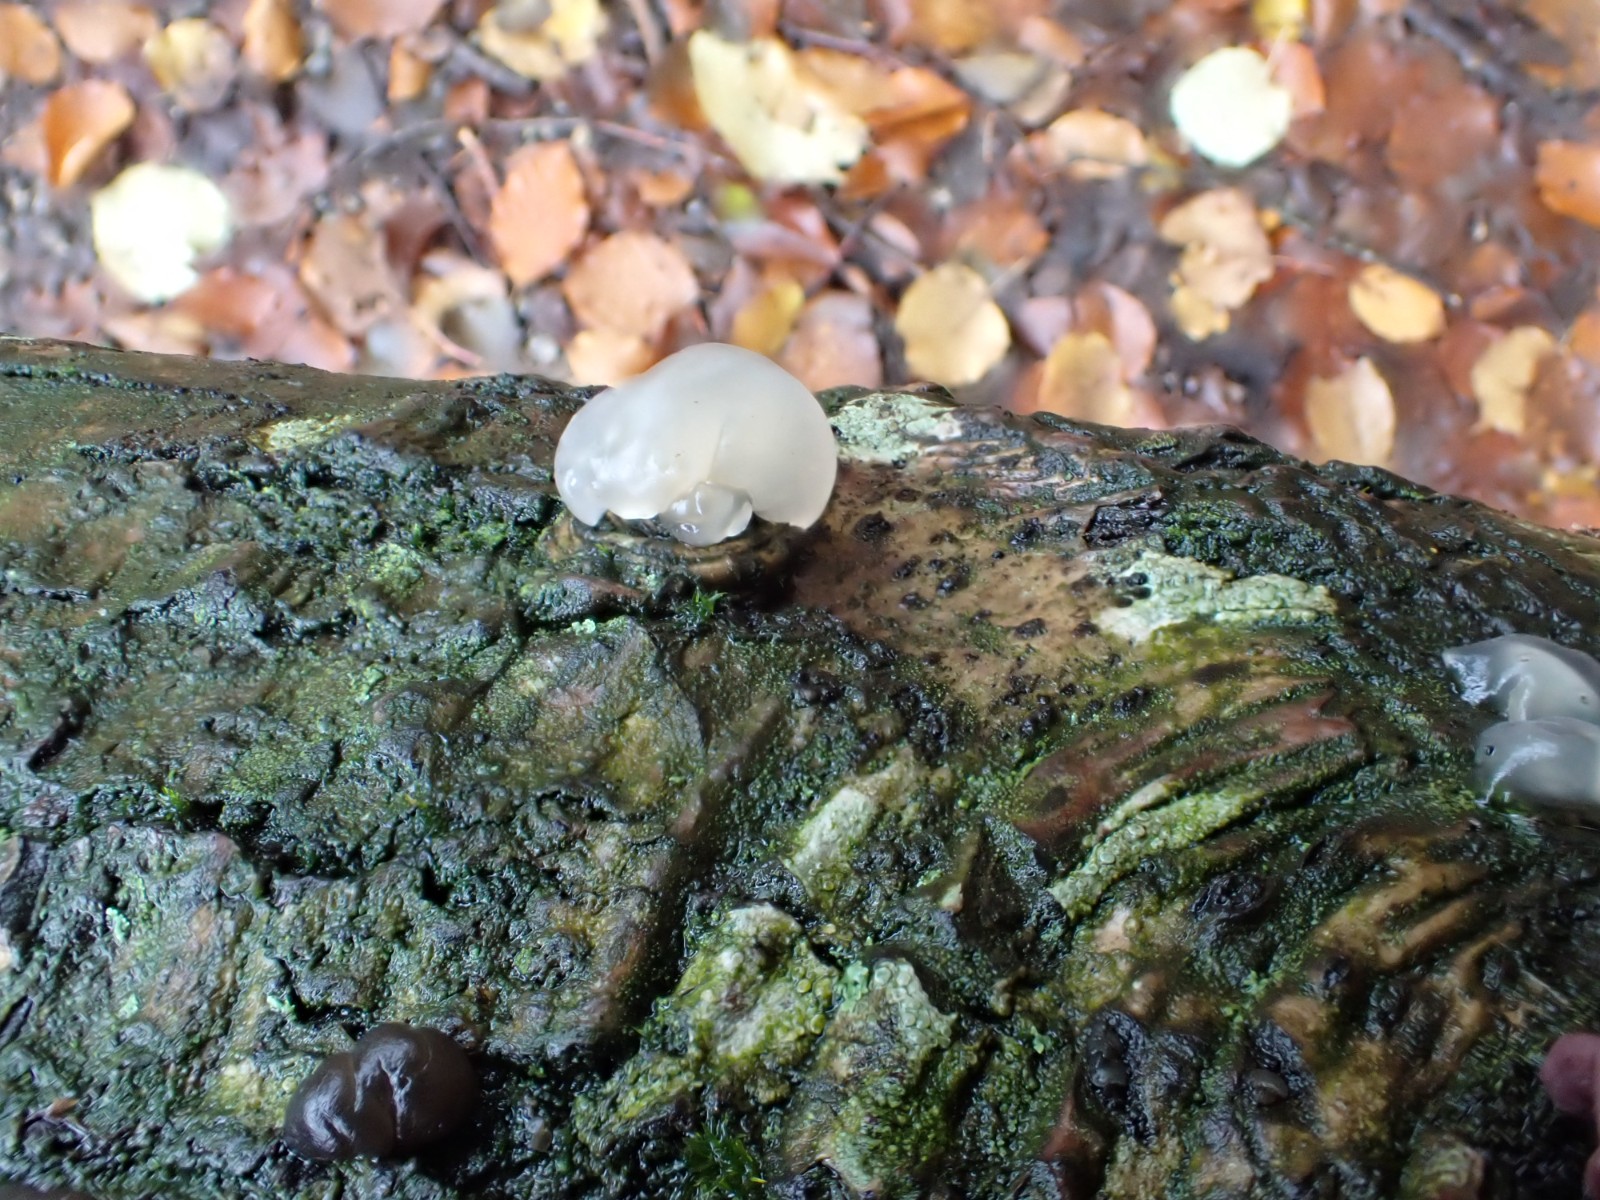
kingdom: Fungi
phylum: Basidiomycota
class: Agaricomycetes
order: Auriculariales
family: Hyaloriaceae
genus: Myxarium
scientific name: Myxarium nucleatum
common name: klar bævretop
